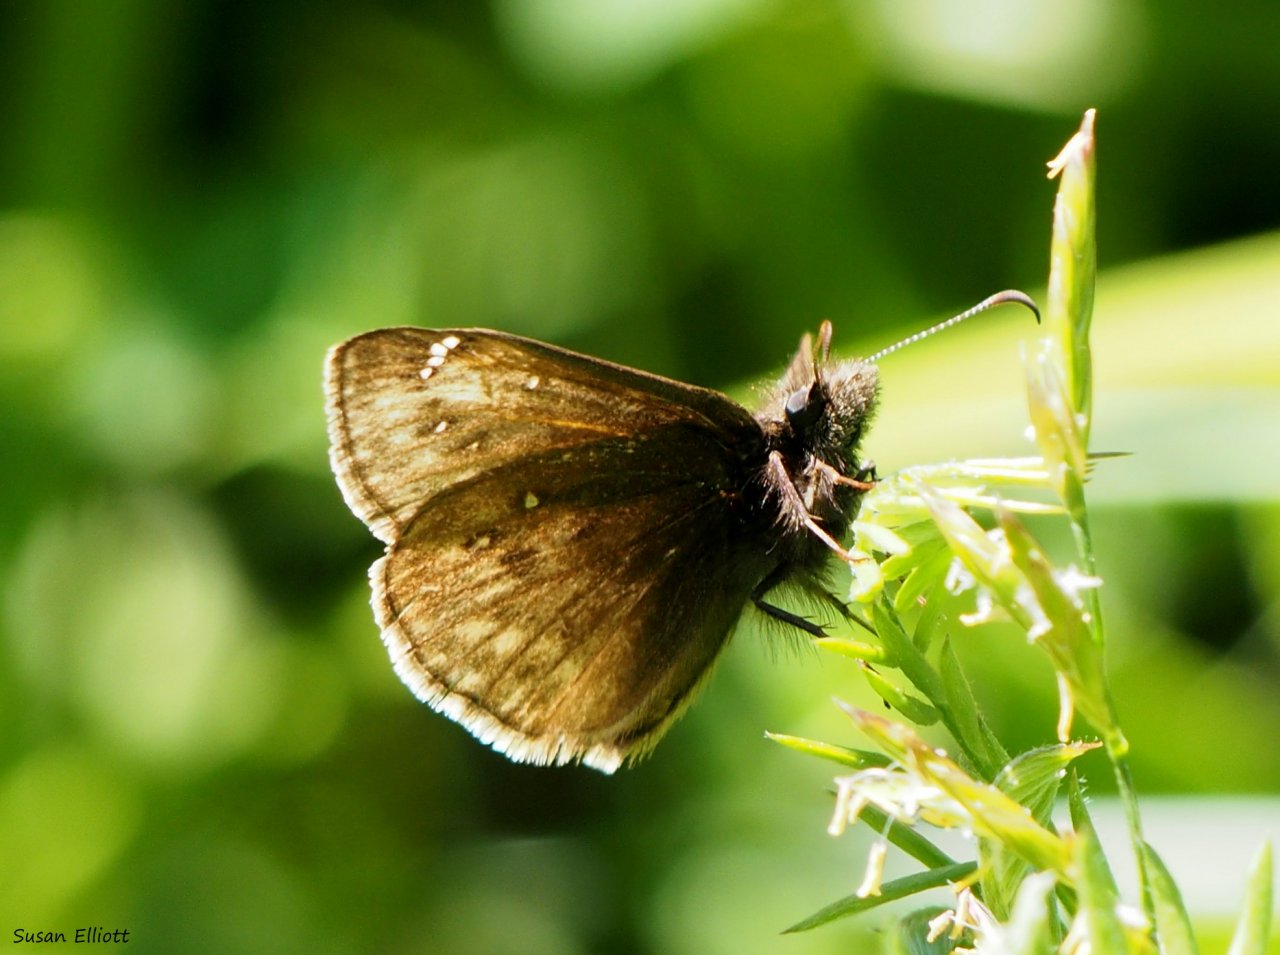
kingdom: Animalia
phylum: Arthropoda
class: Insecta
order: Lepidoptera
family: Hesperiidae
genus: Erynnis
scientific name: Erynnis
